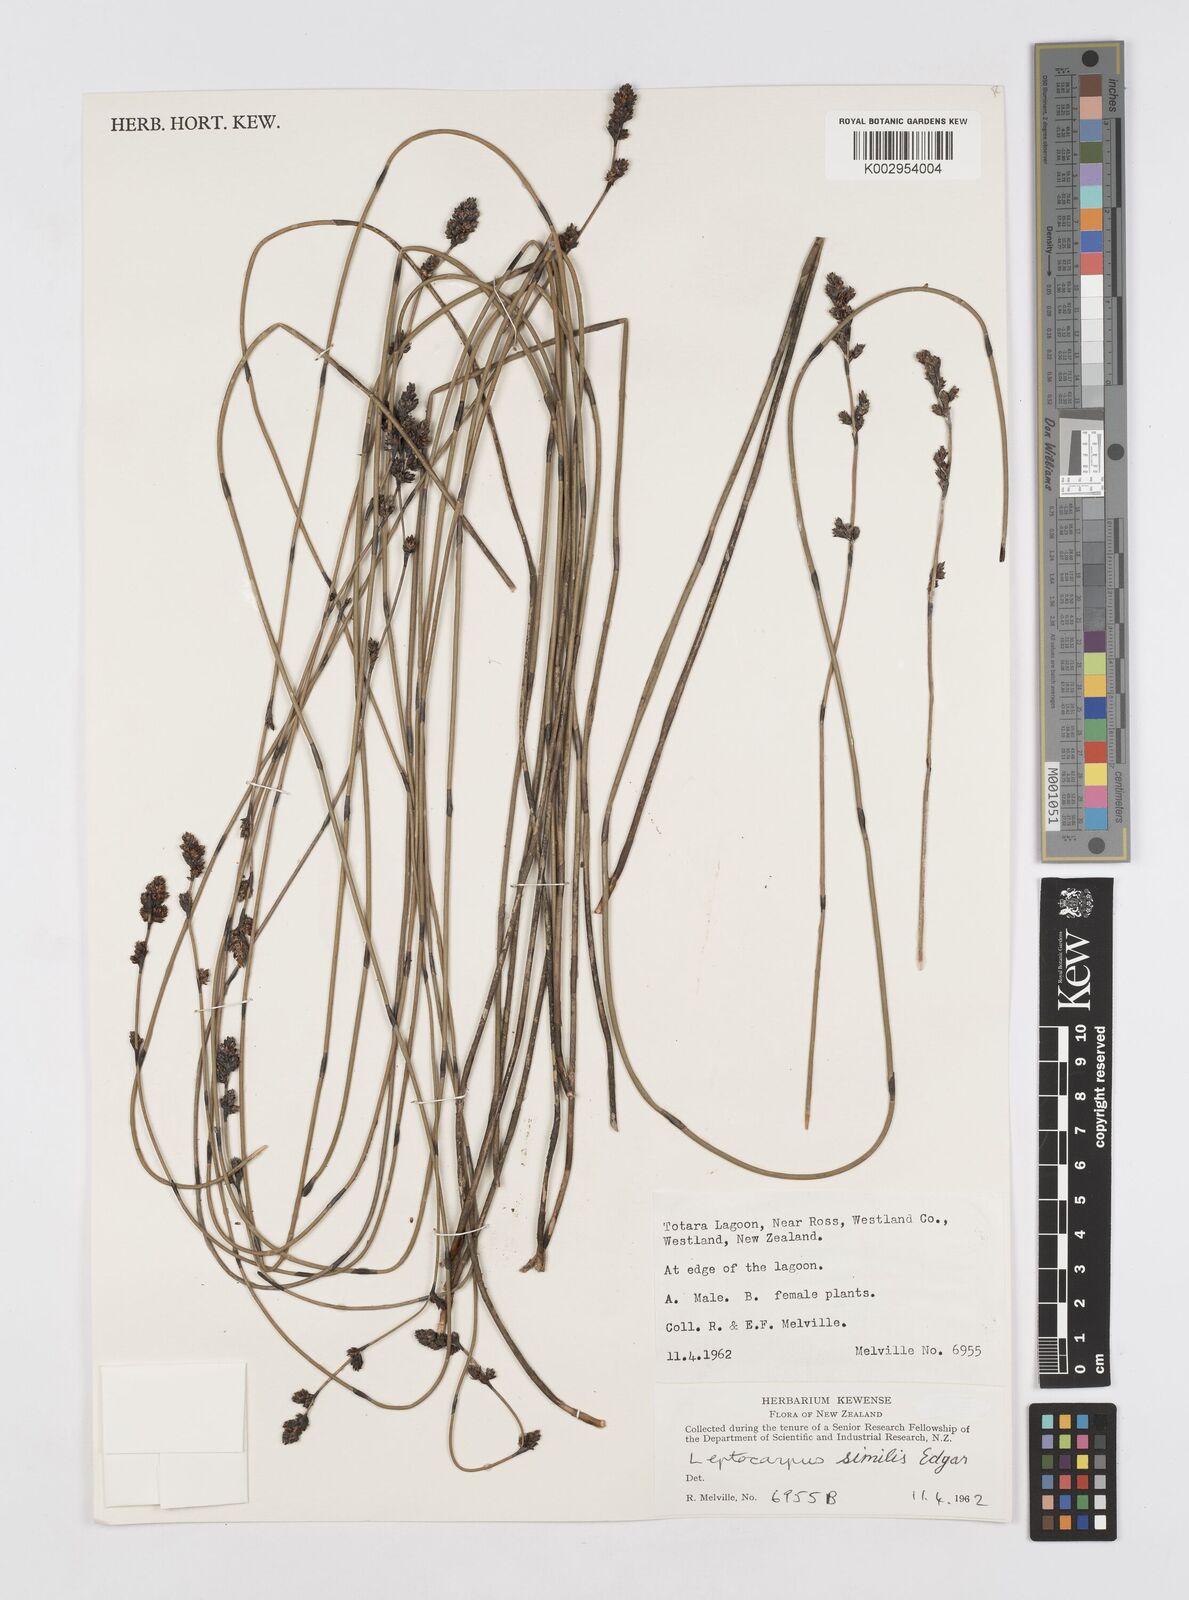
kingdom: Plantae
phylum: Tracheophyta
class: Liliopsida
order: Poales
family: Restionaceae
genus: Apodasmia
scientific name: Apodasmia similis
